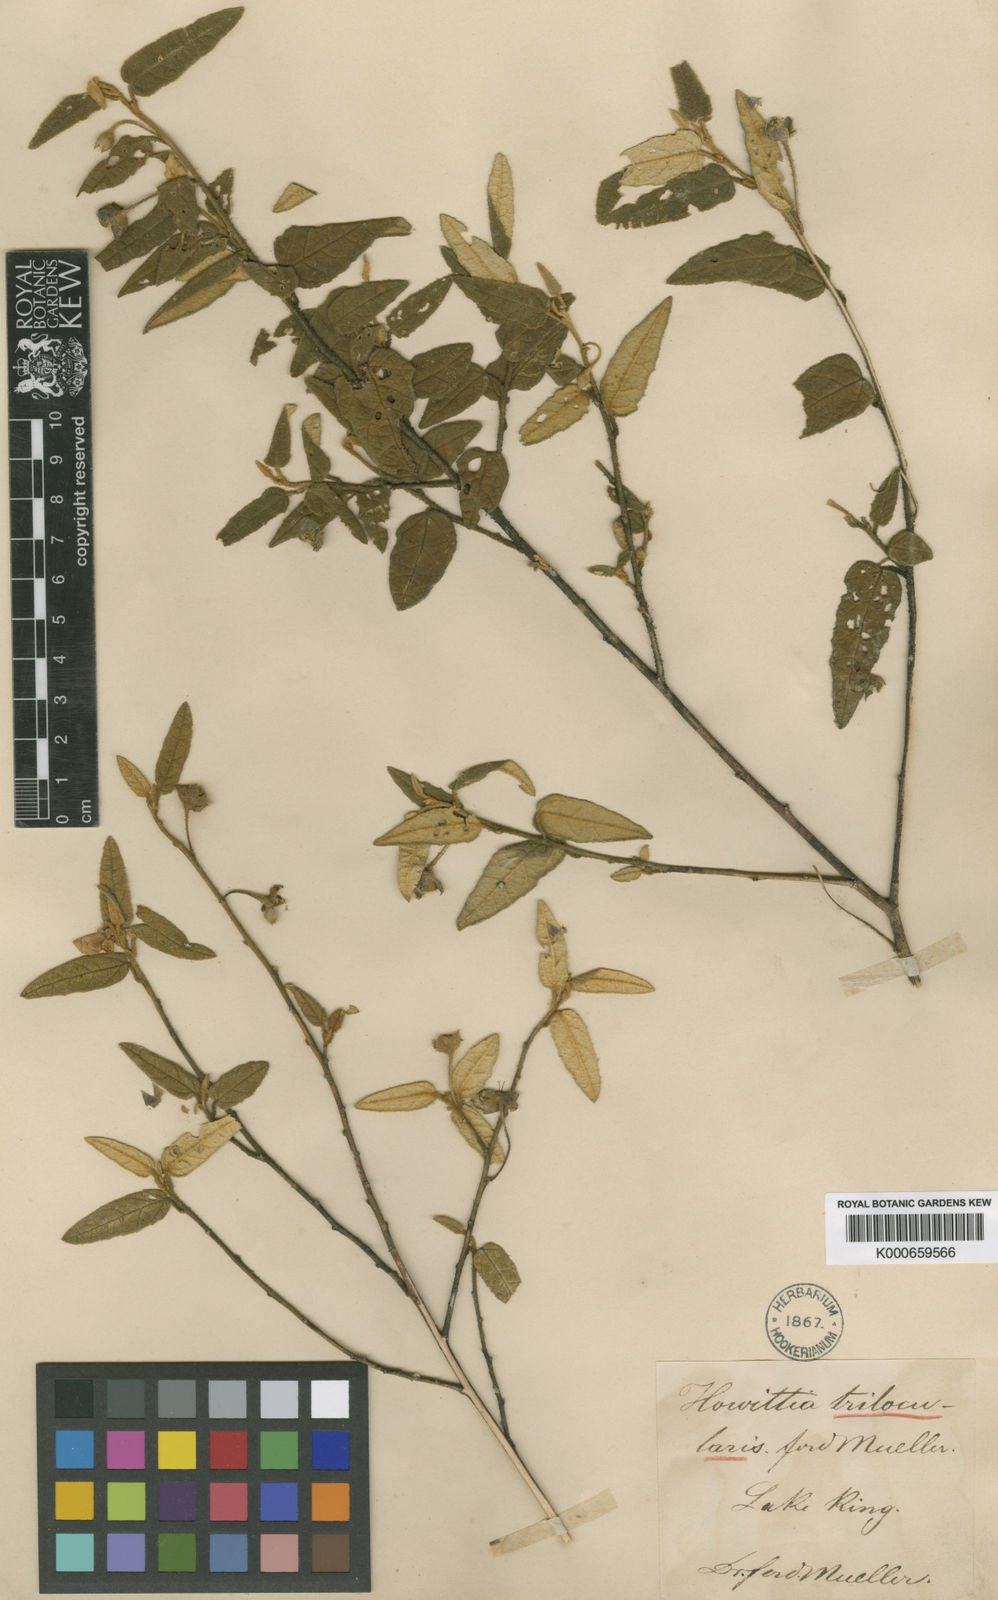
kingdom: Plantae
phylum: Tracheophyta
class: Magnoliopsida
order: Malvales
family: Malvaceae
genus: Howittia
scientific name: Howittia trilocularis
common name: Blue howittia
